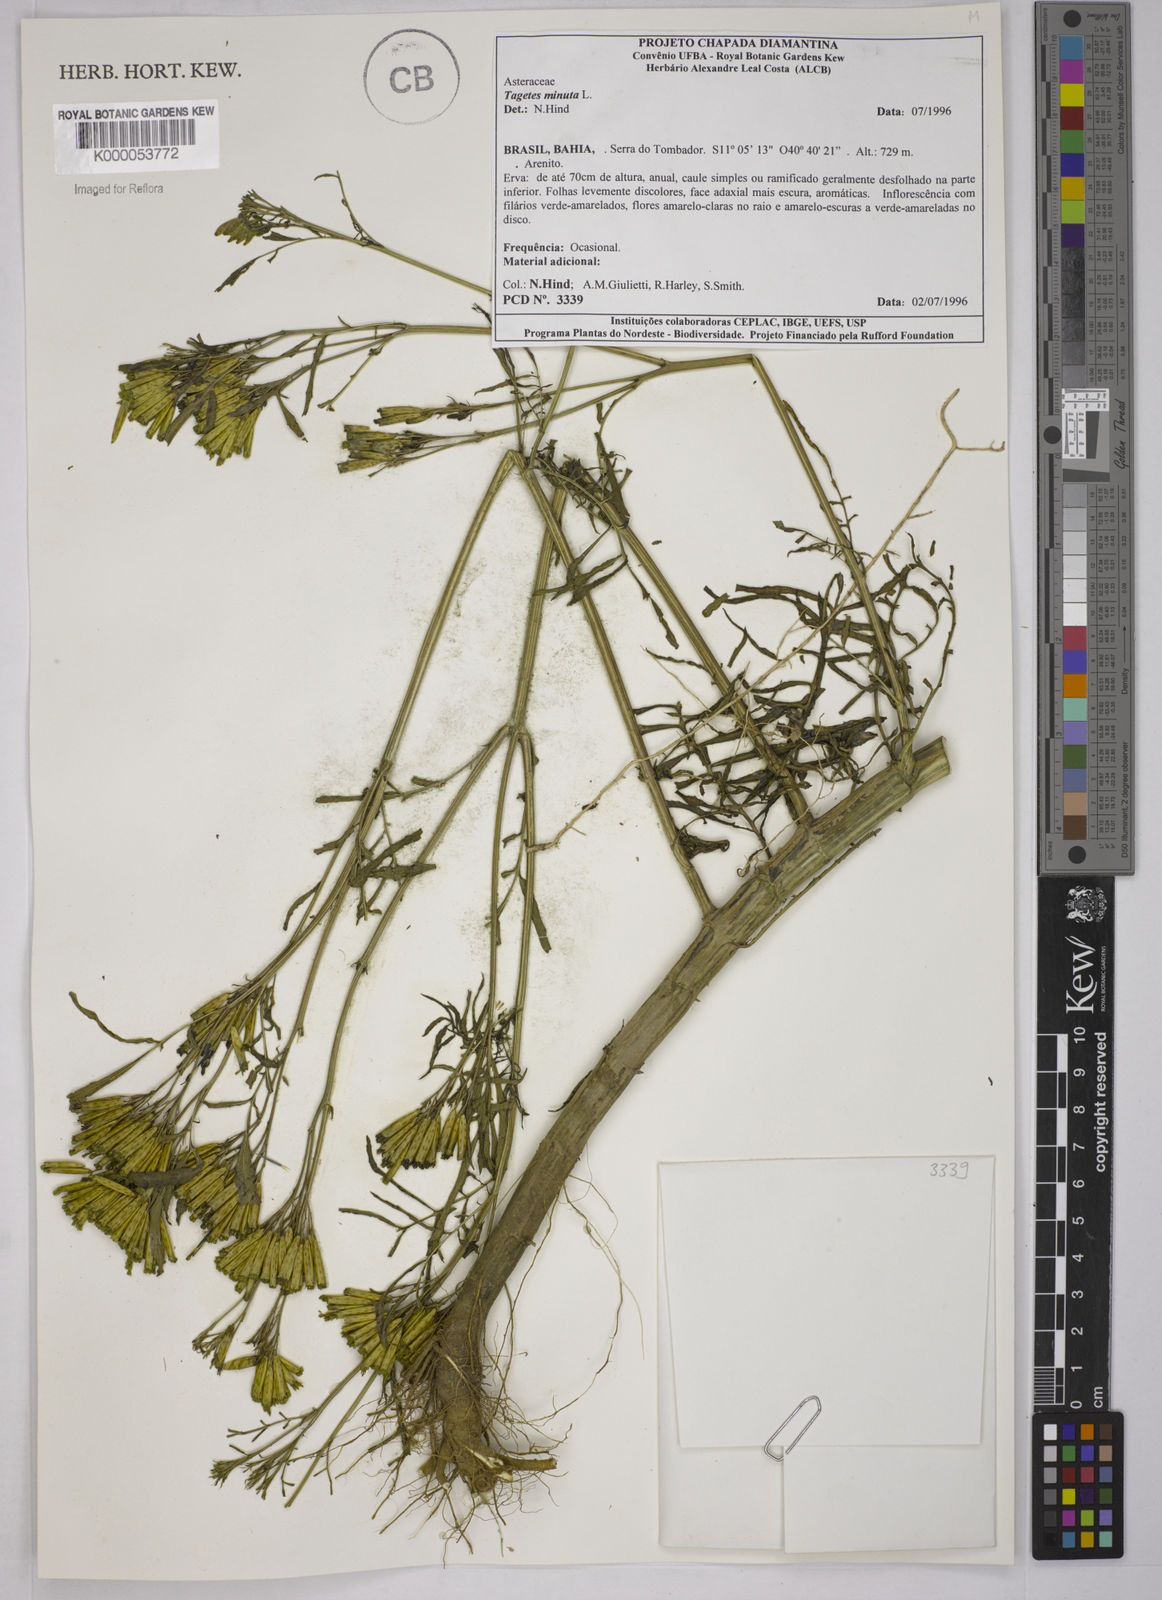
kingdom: Plantae
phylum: Tracheophyta
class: Magnoliopsida
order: Asterales
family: Asteraceae
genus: Tagetes
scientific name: Tagetes minuta
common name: Muster john henry
